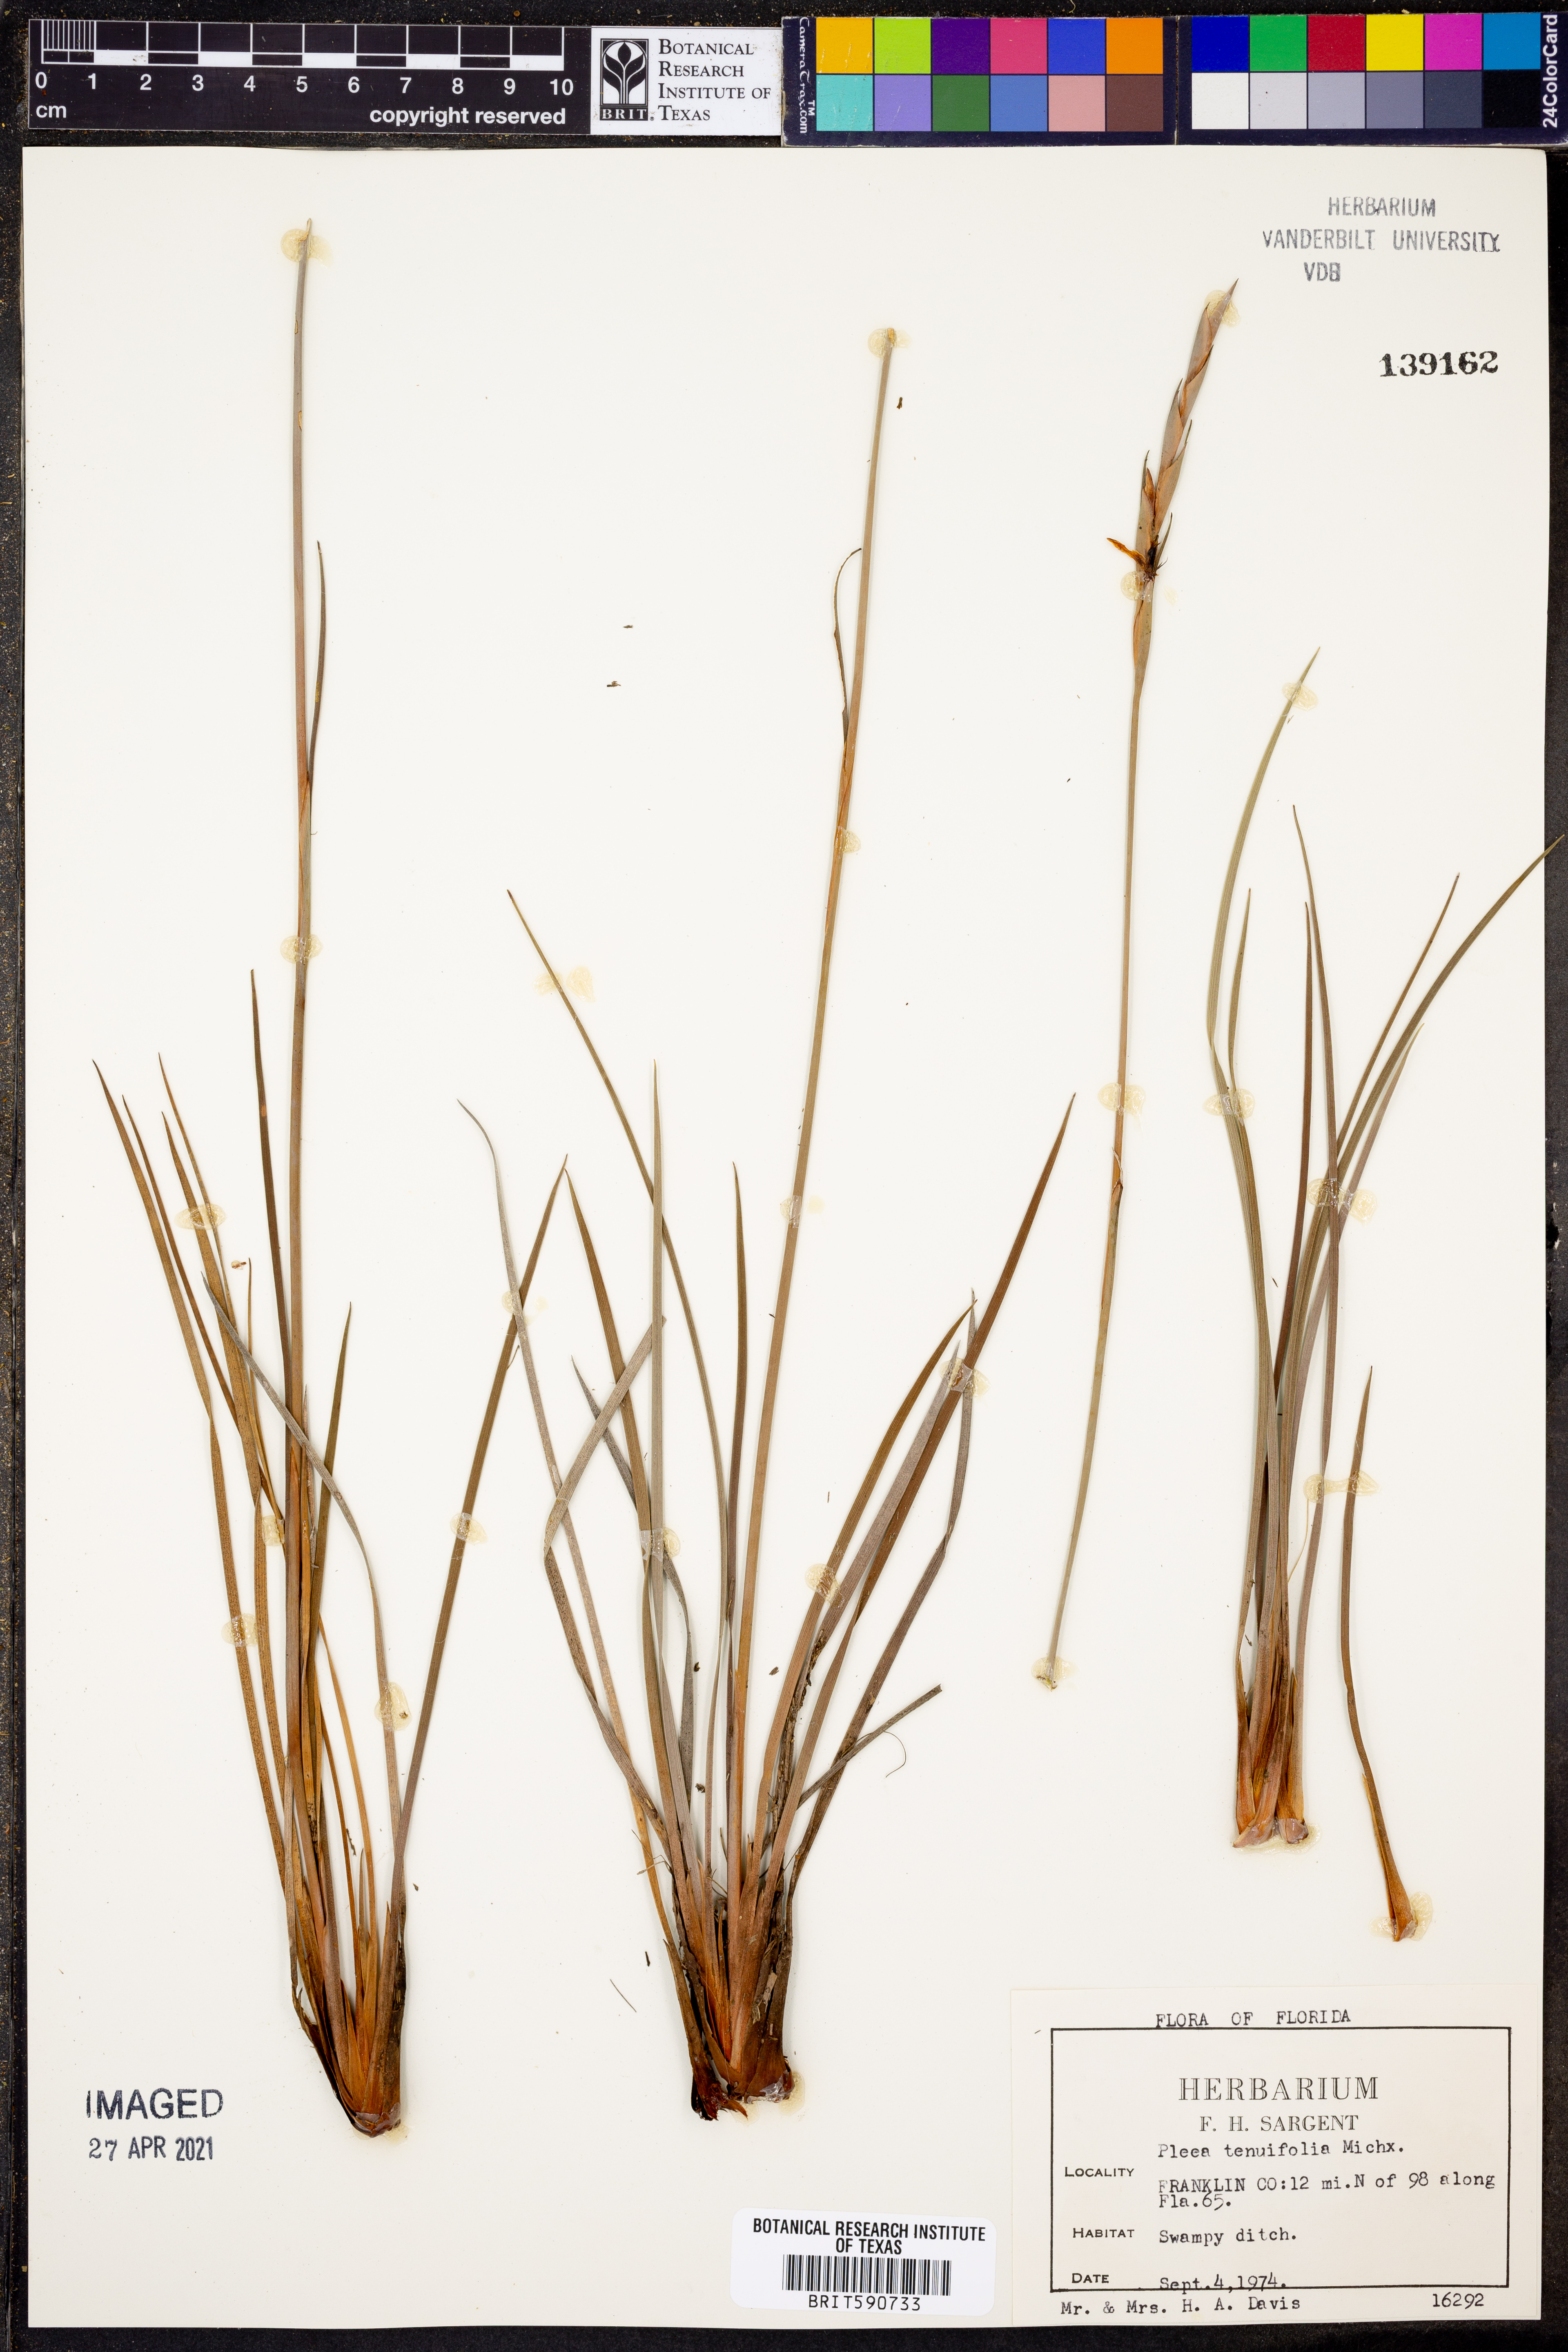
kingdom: Plantae
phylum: Tracheophyta
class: Liliopsida
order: Alismatales
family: Tofieldiaceae
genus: Pleea
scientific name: Pleea tenuifolia
